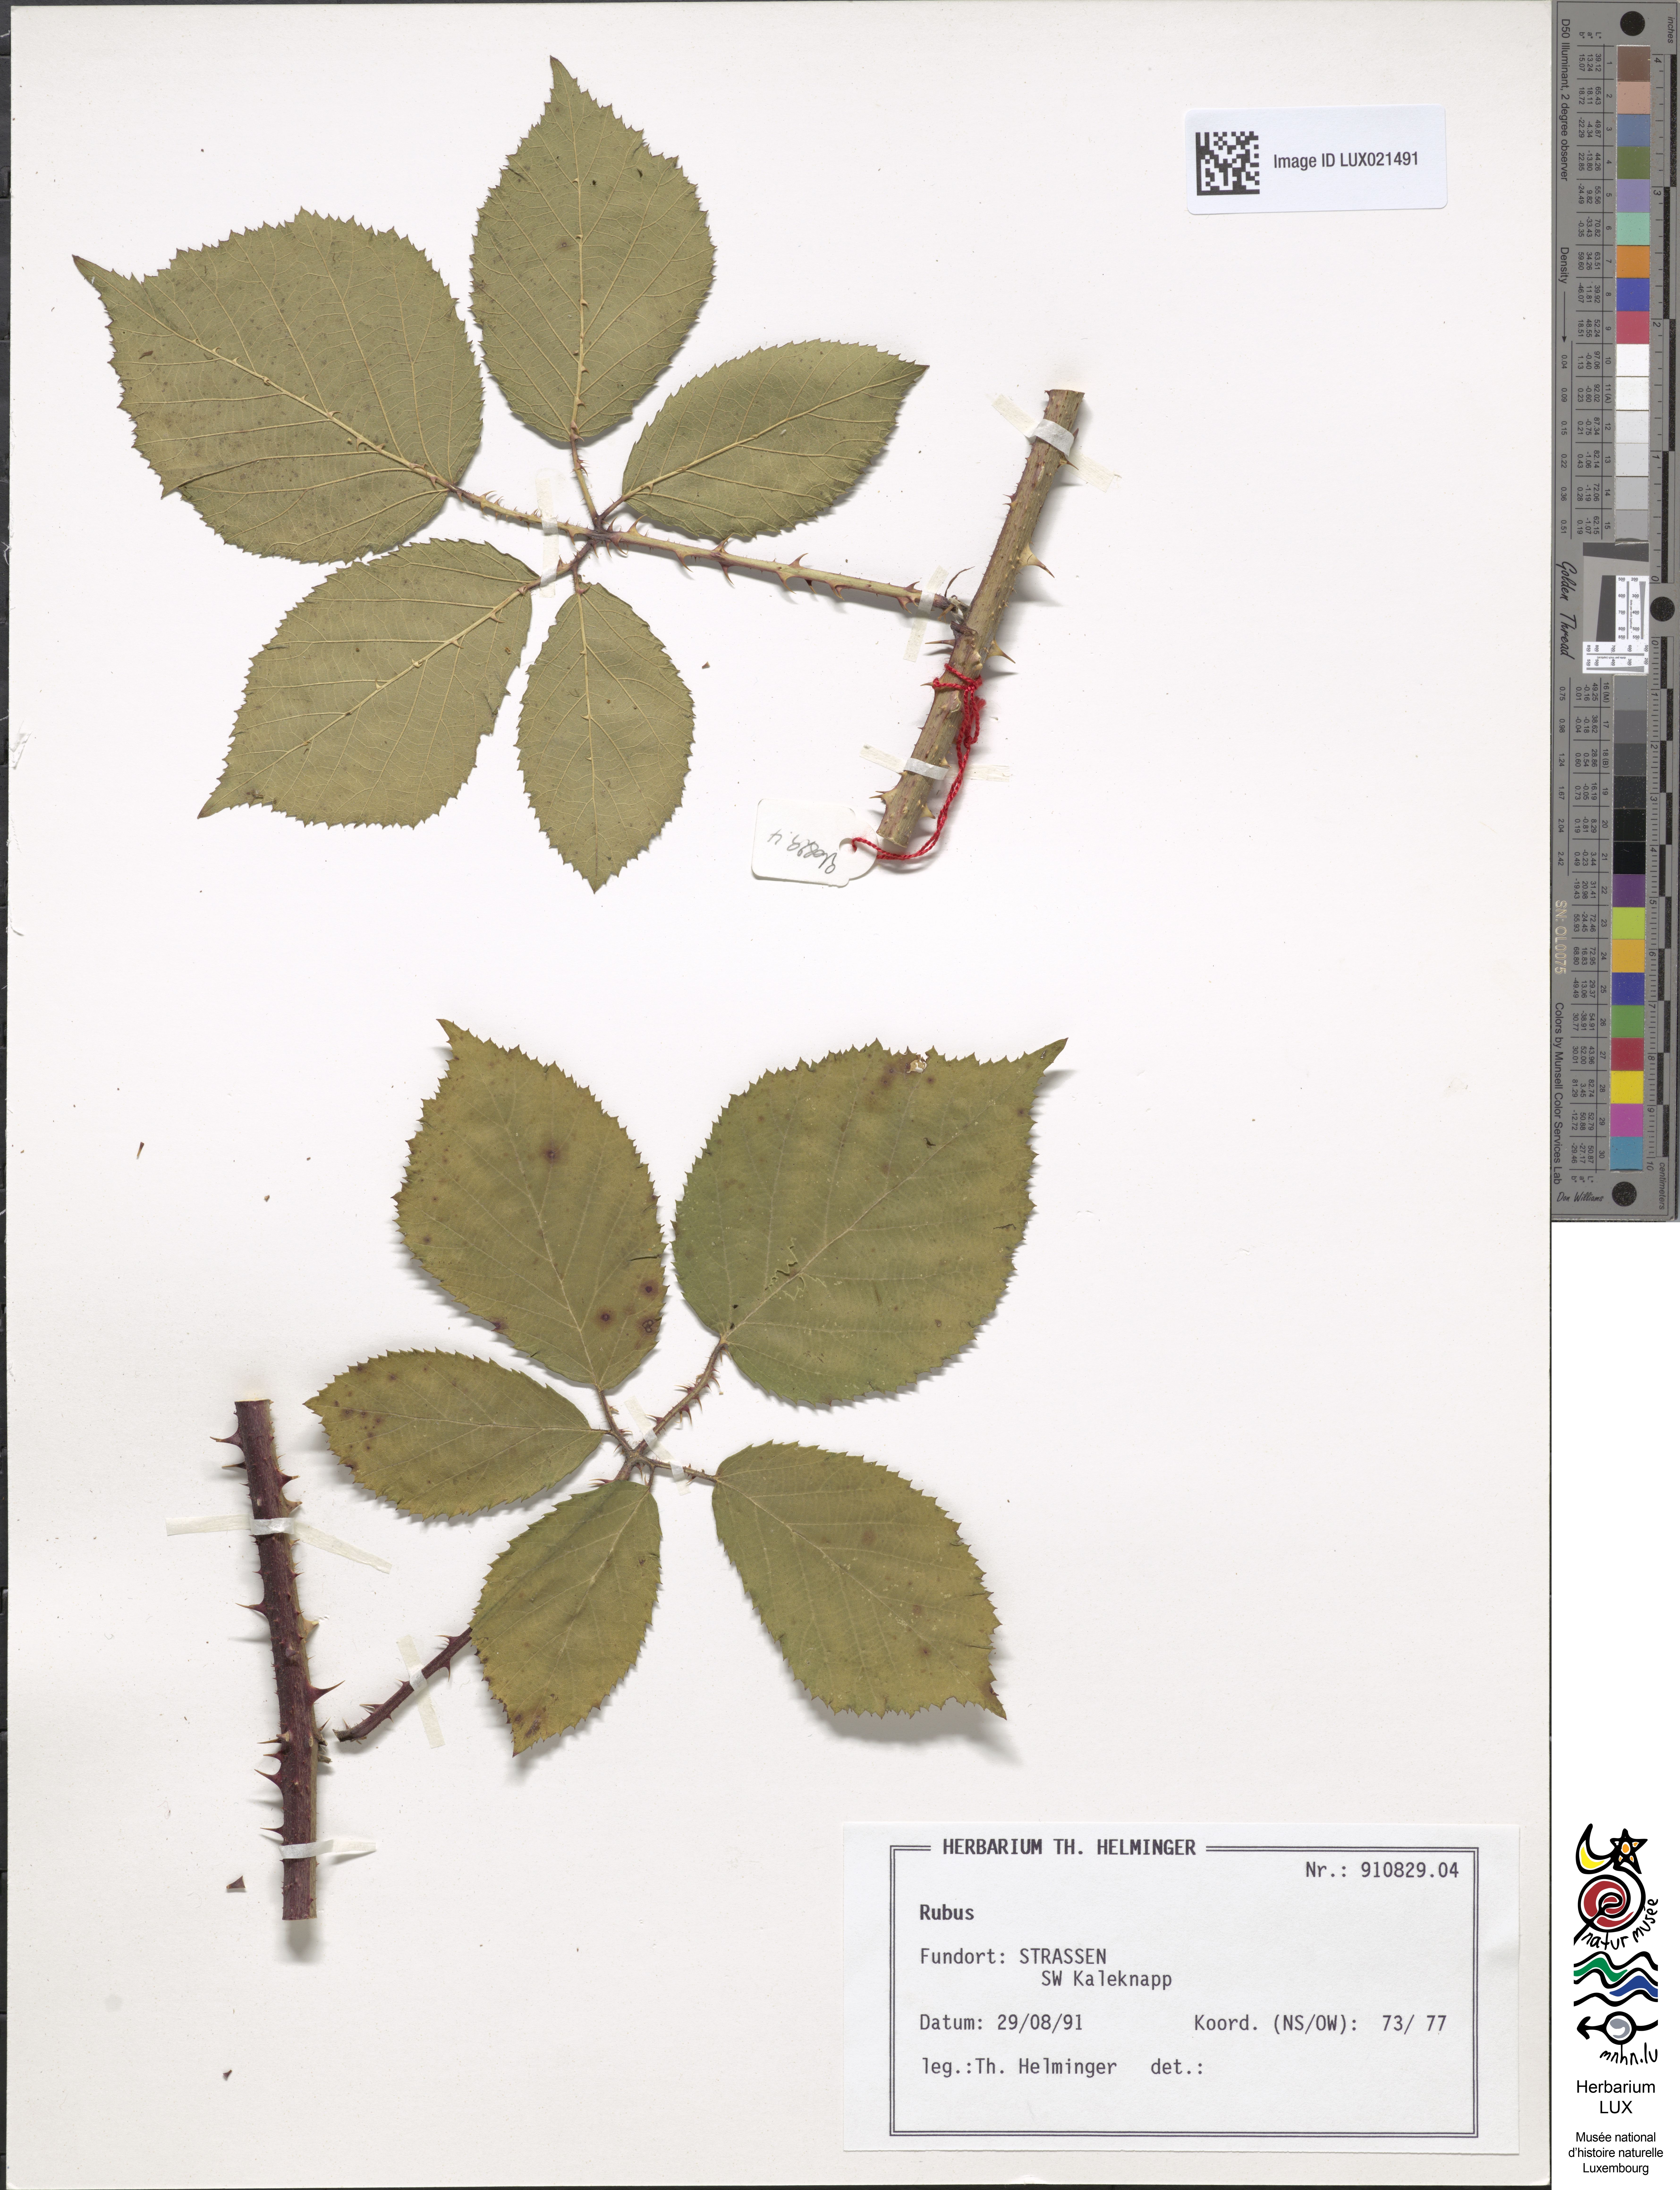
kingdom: Plantae
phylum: Tracheophyta
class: Magnoliopsida
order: Rosales
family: Rosaceae
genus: Rubus
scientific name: Rubus
